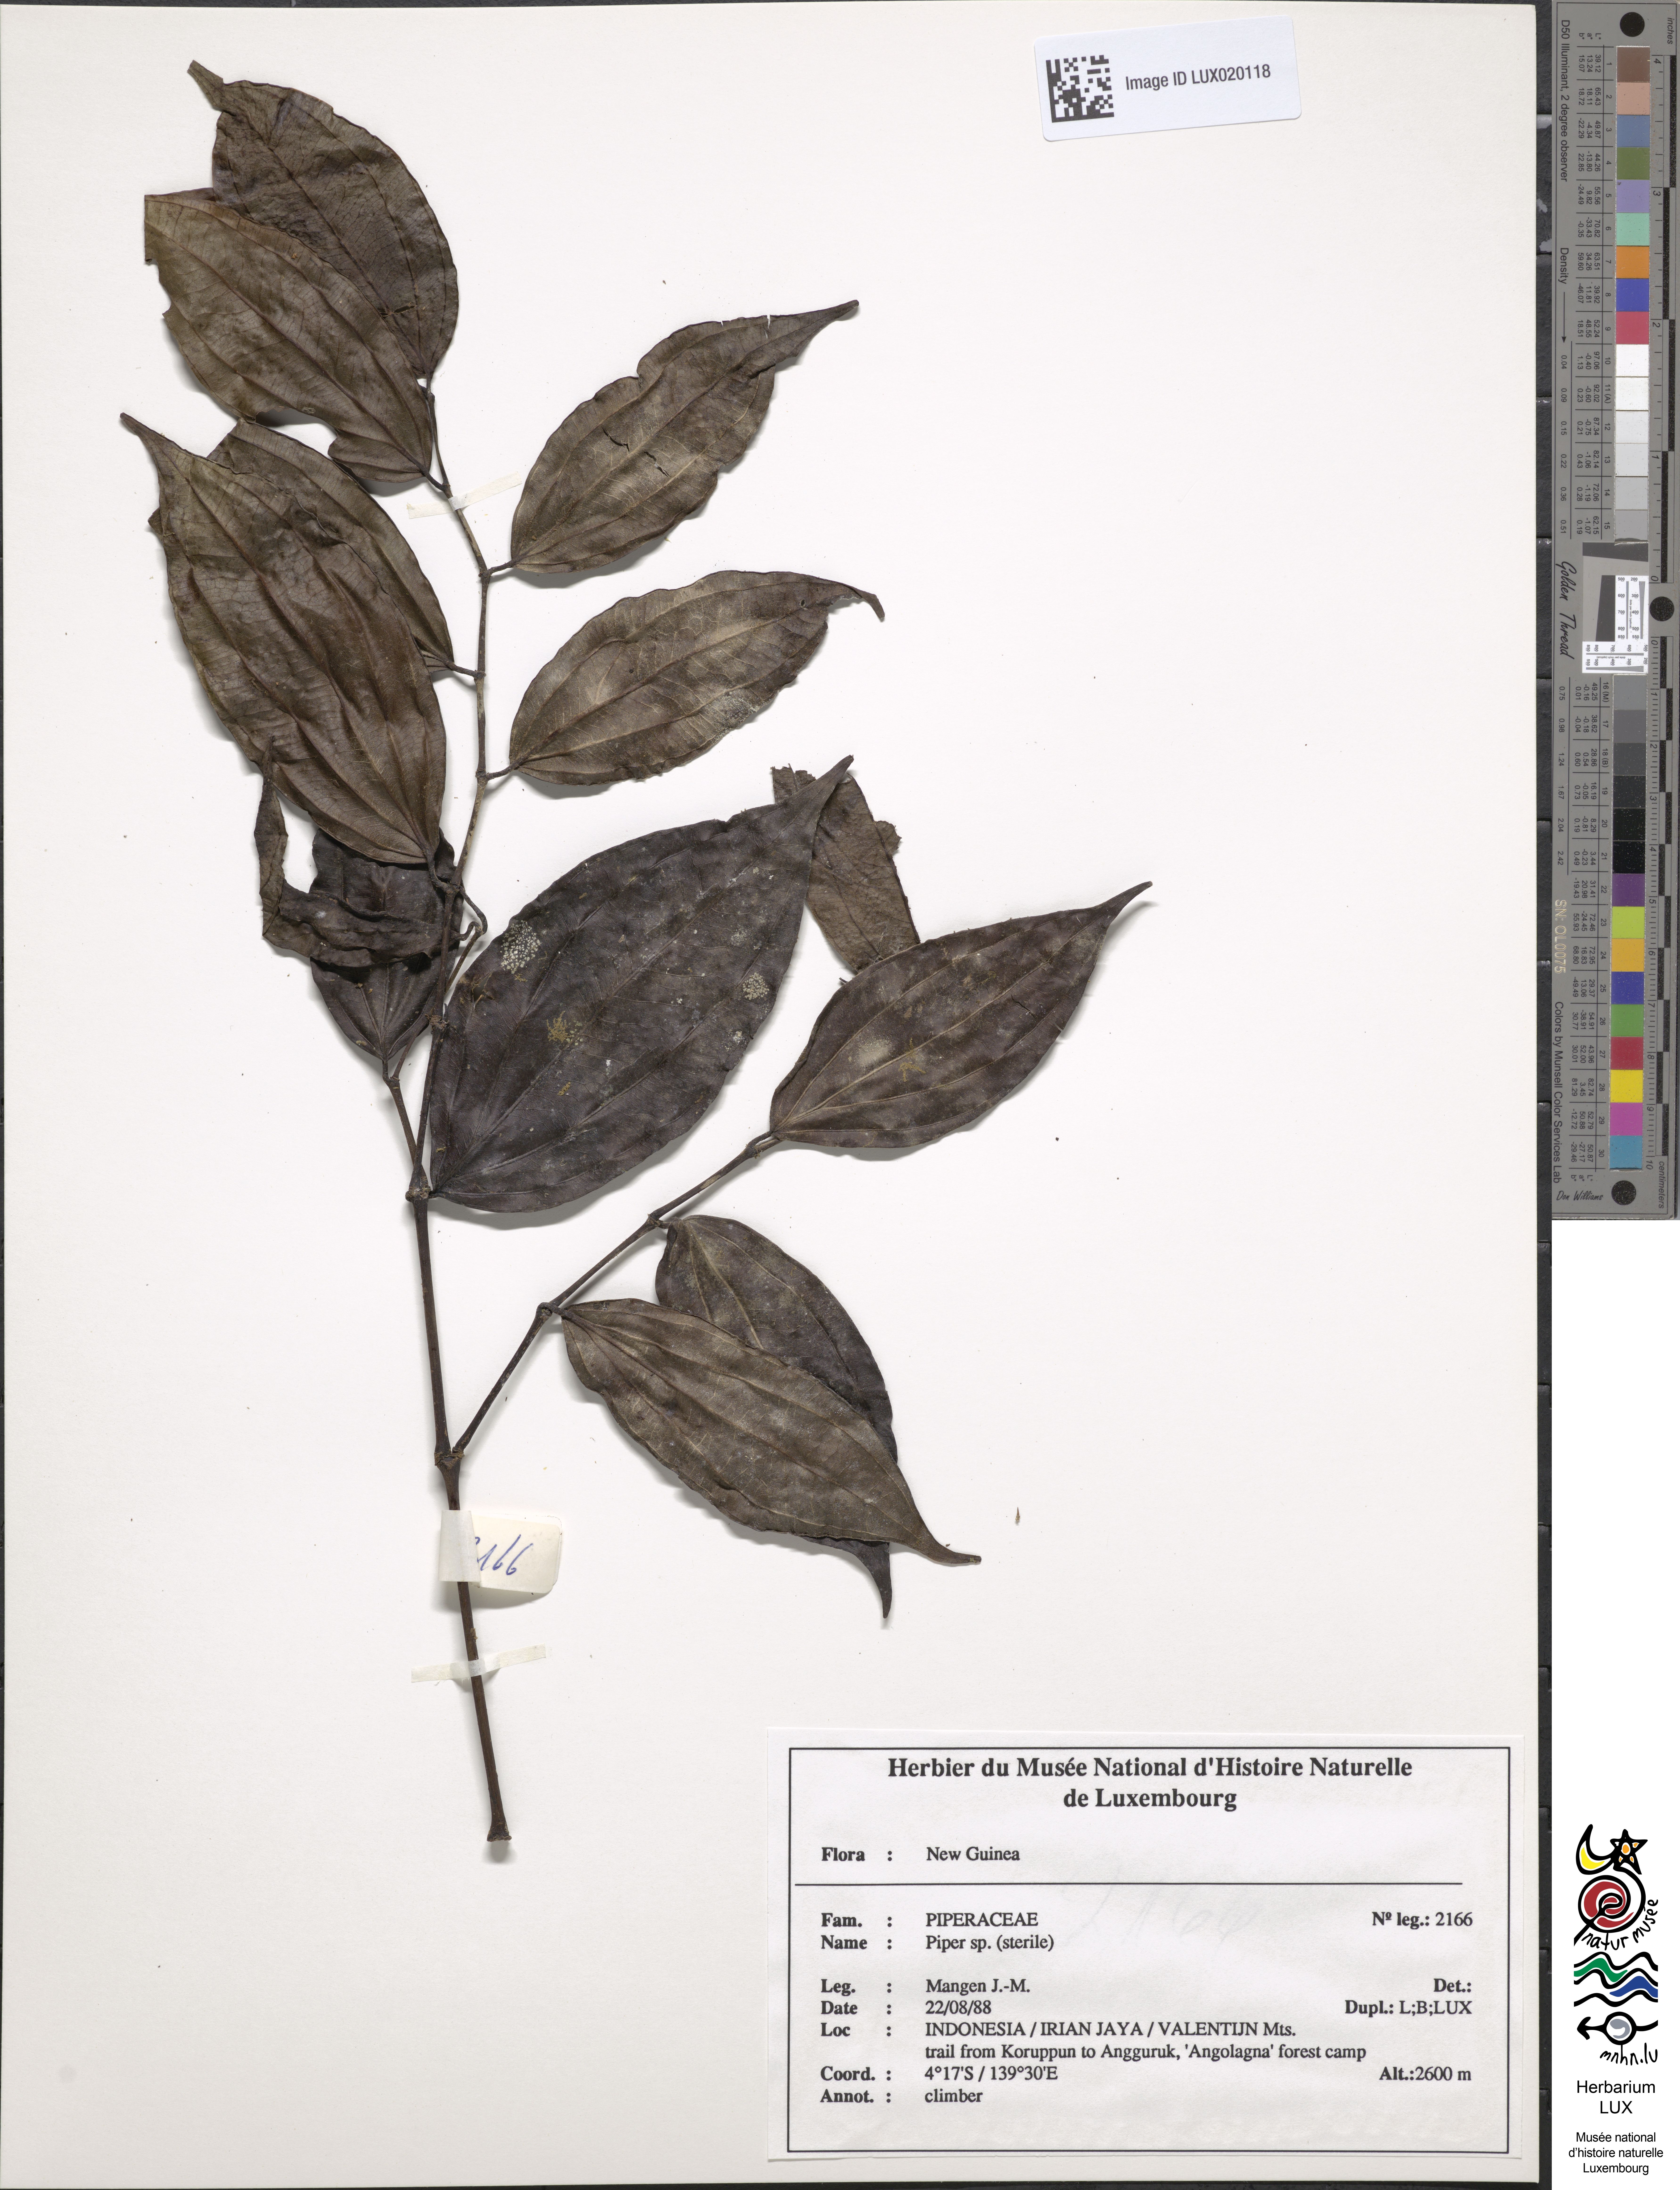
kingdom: Plantae
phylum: Tracheophyta
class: Magnoliopsida
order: Piperales
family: Piperaceae
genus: Piper
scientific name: Piper
